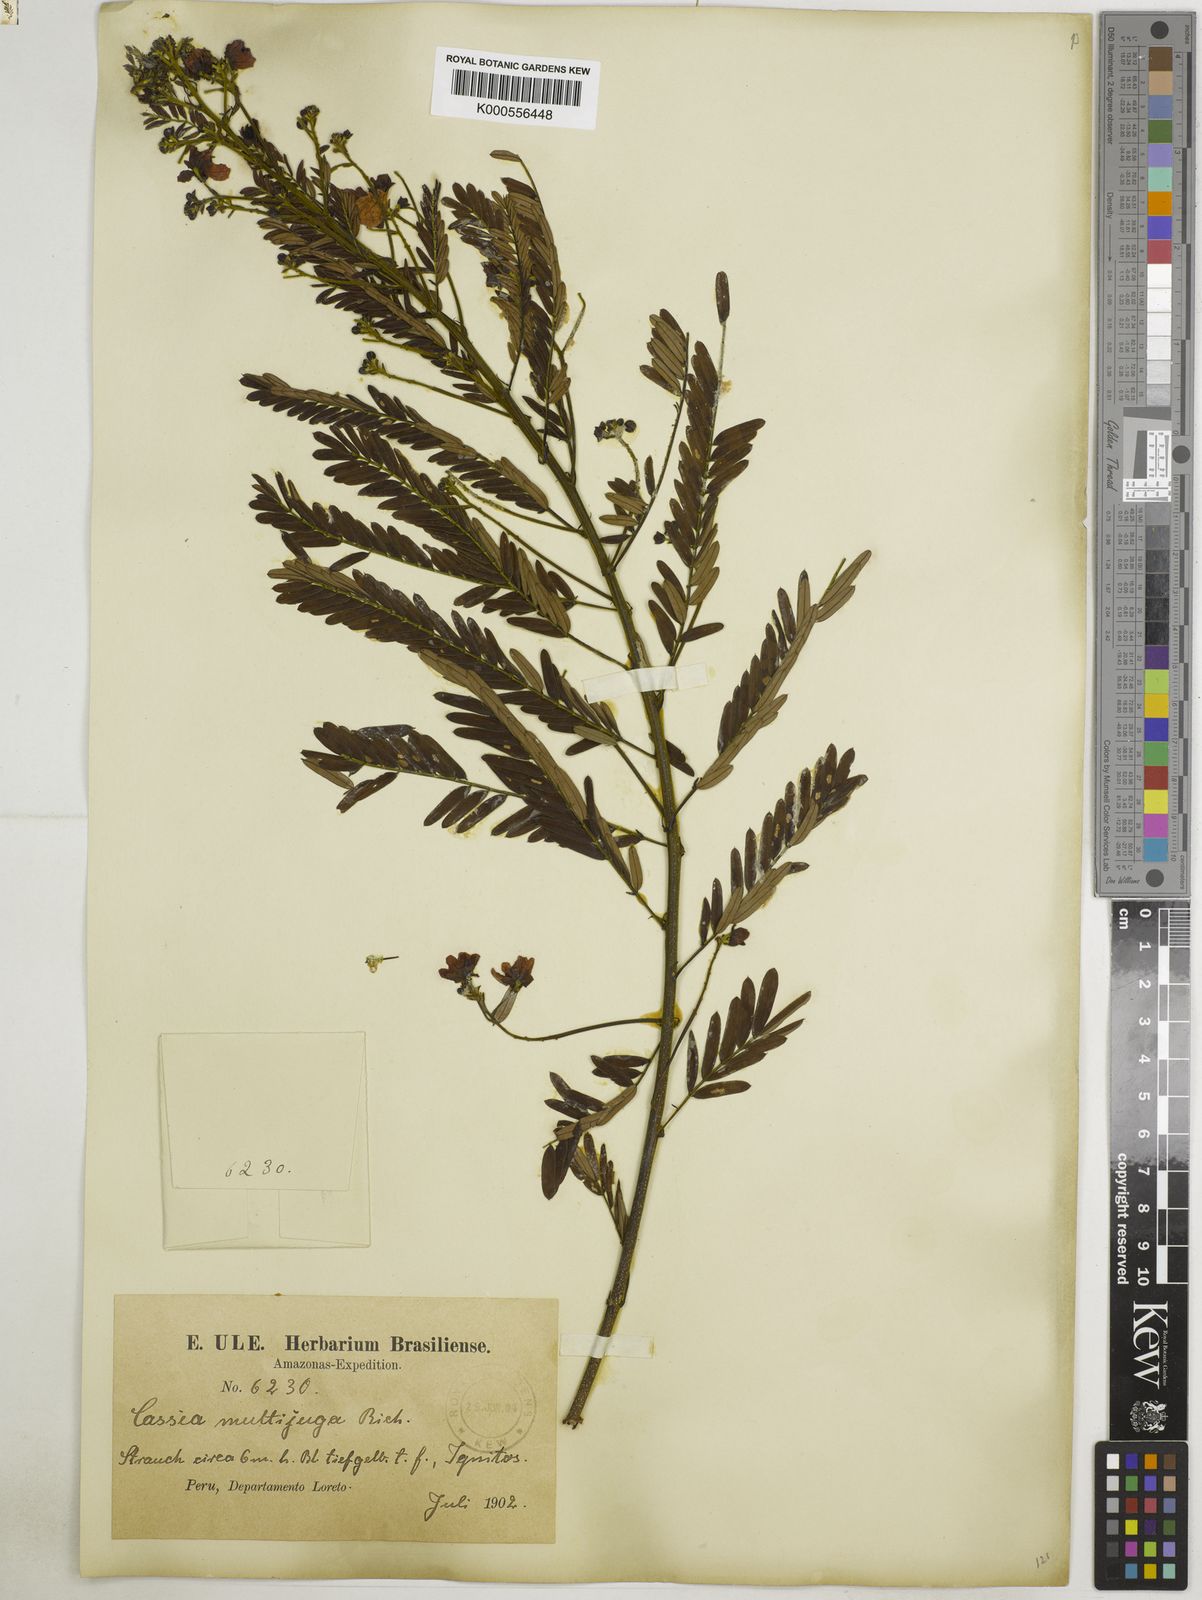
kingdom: Plantae
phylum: Tracheophyta
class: Magnoliopsida
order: Fabales
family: Fabaceae
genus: Senna
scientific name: Senna multijuga
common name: False sicklepod
